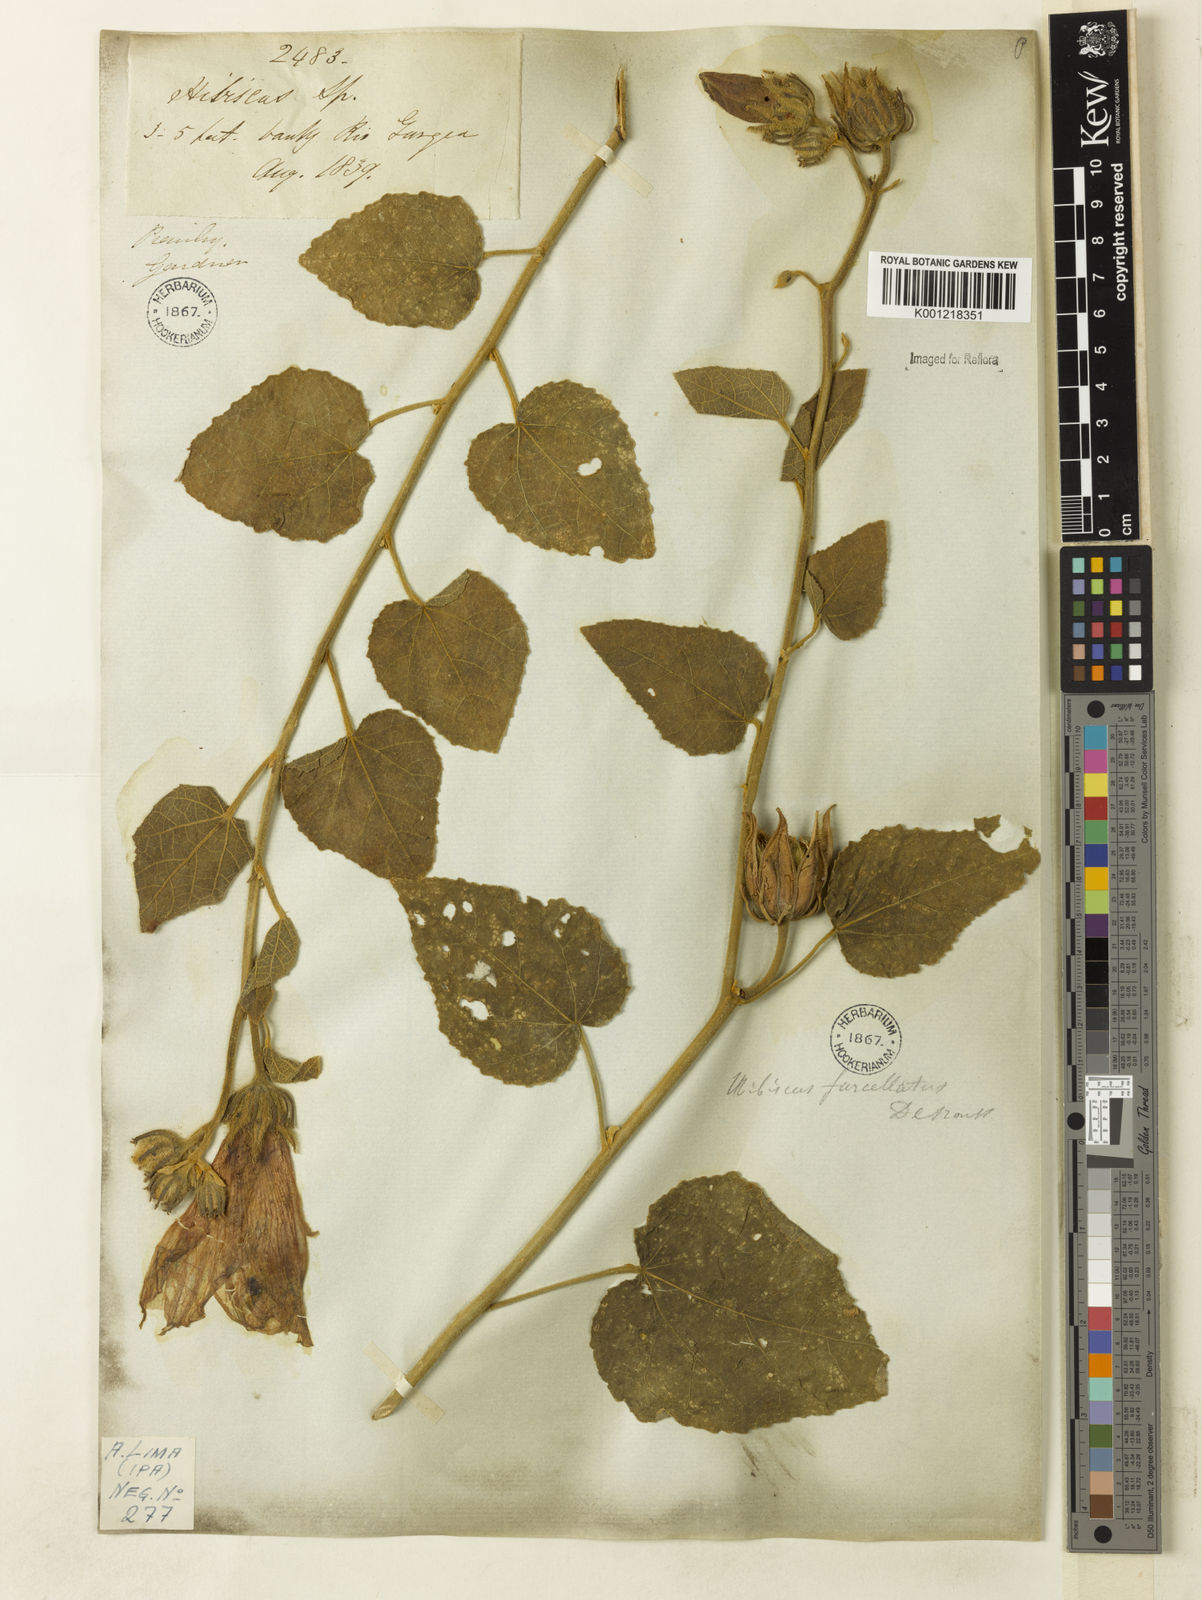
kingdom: Plantae
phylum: Tracheophyta
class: Magnoliopsida
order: Malvales
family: Malvaceae
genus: Hibiscus
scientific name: Hibiscus furcellatus
